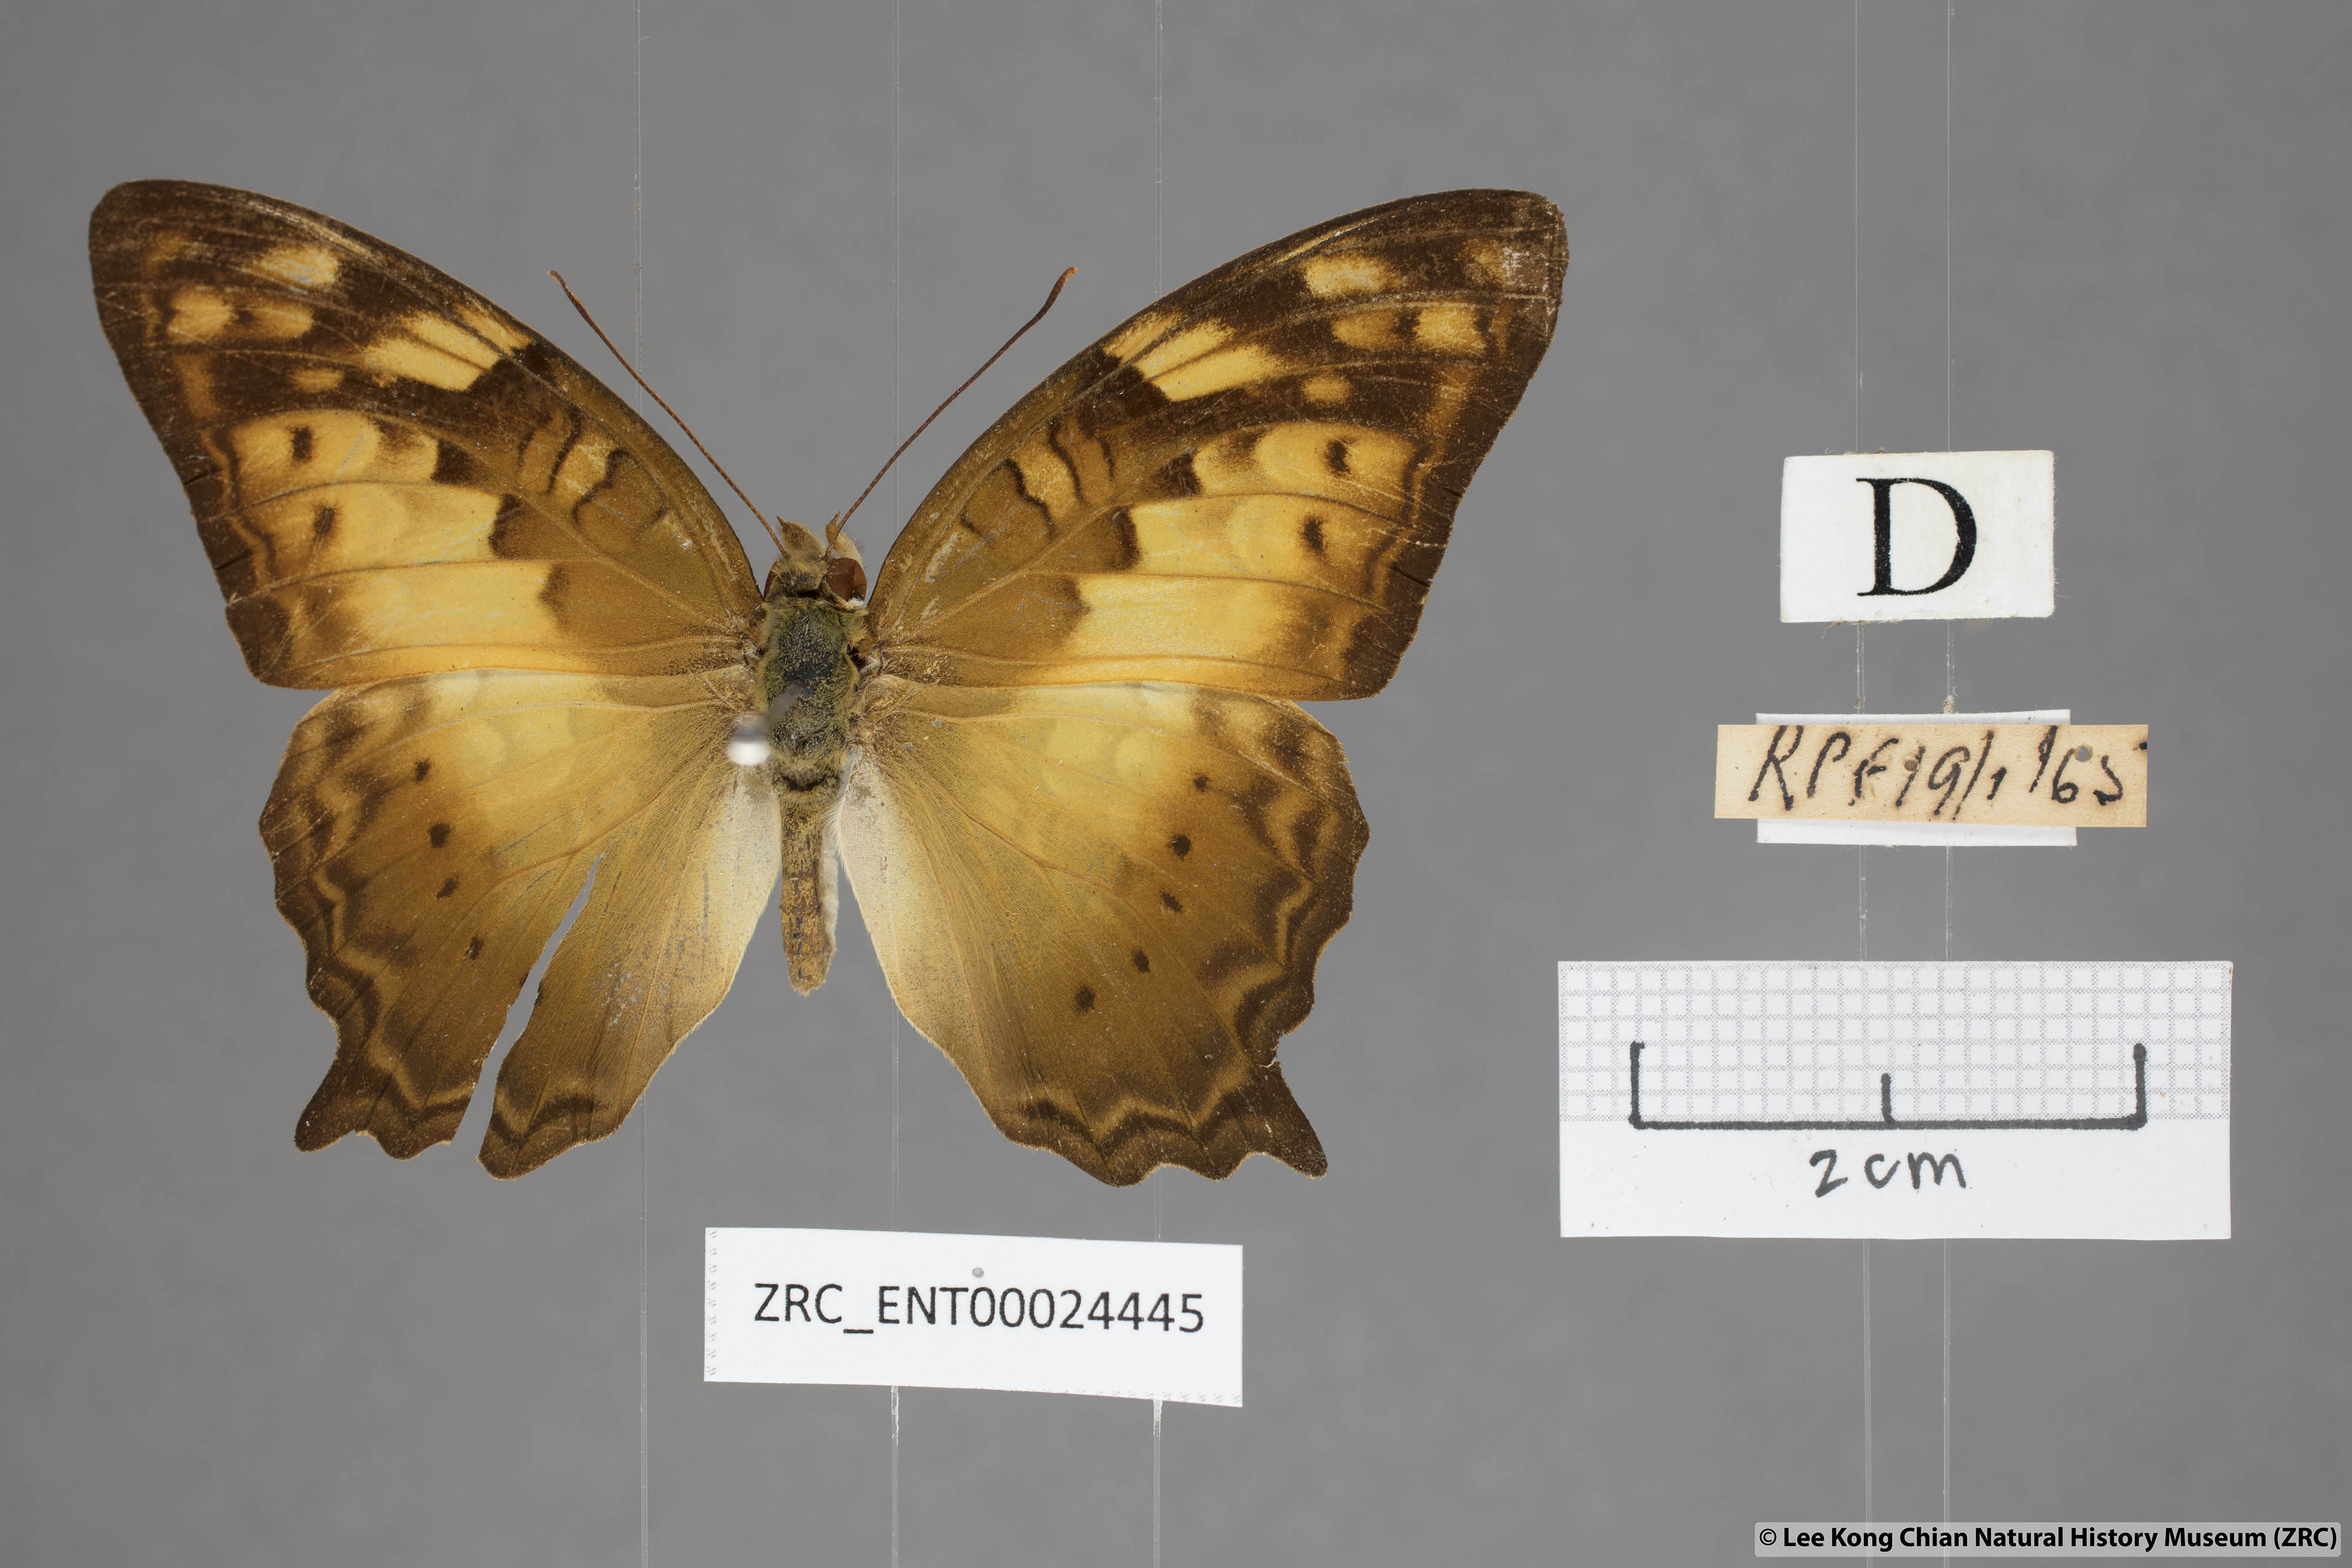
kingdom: Animalia
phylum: Arthropoda
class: Insecta
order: Lepidoptera
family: Nymphalidae
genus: Vagrans
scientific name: Vagrans egista
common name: Tailed rustic
